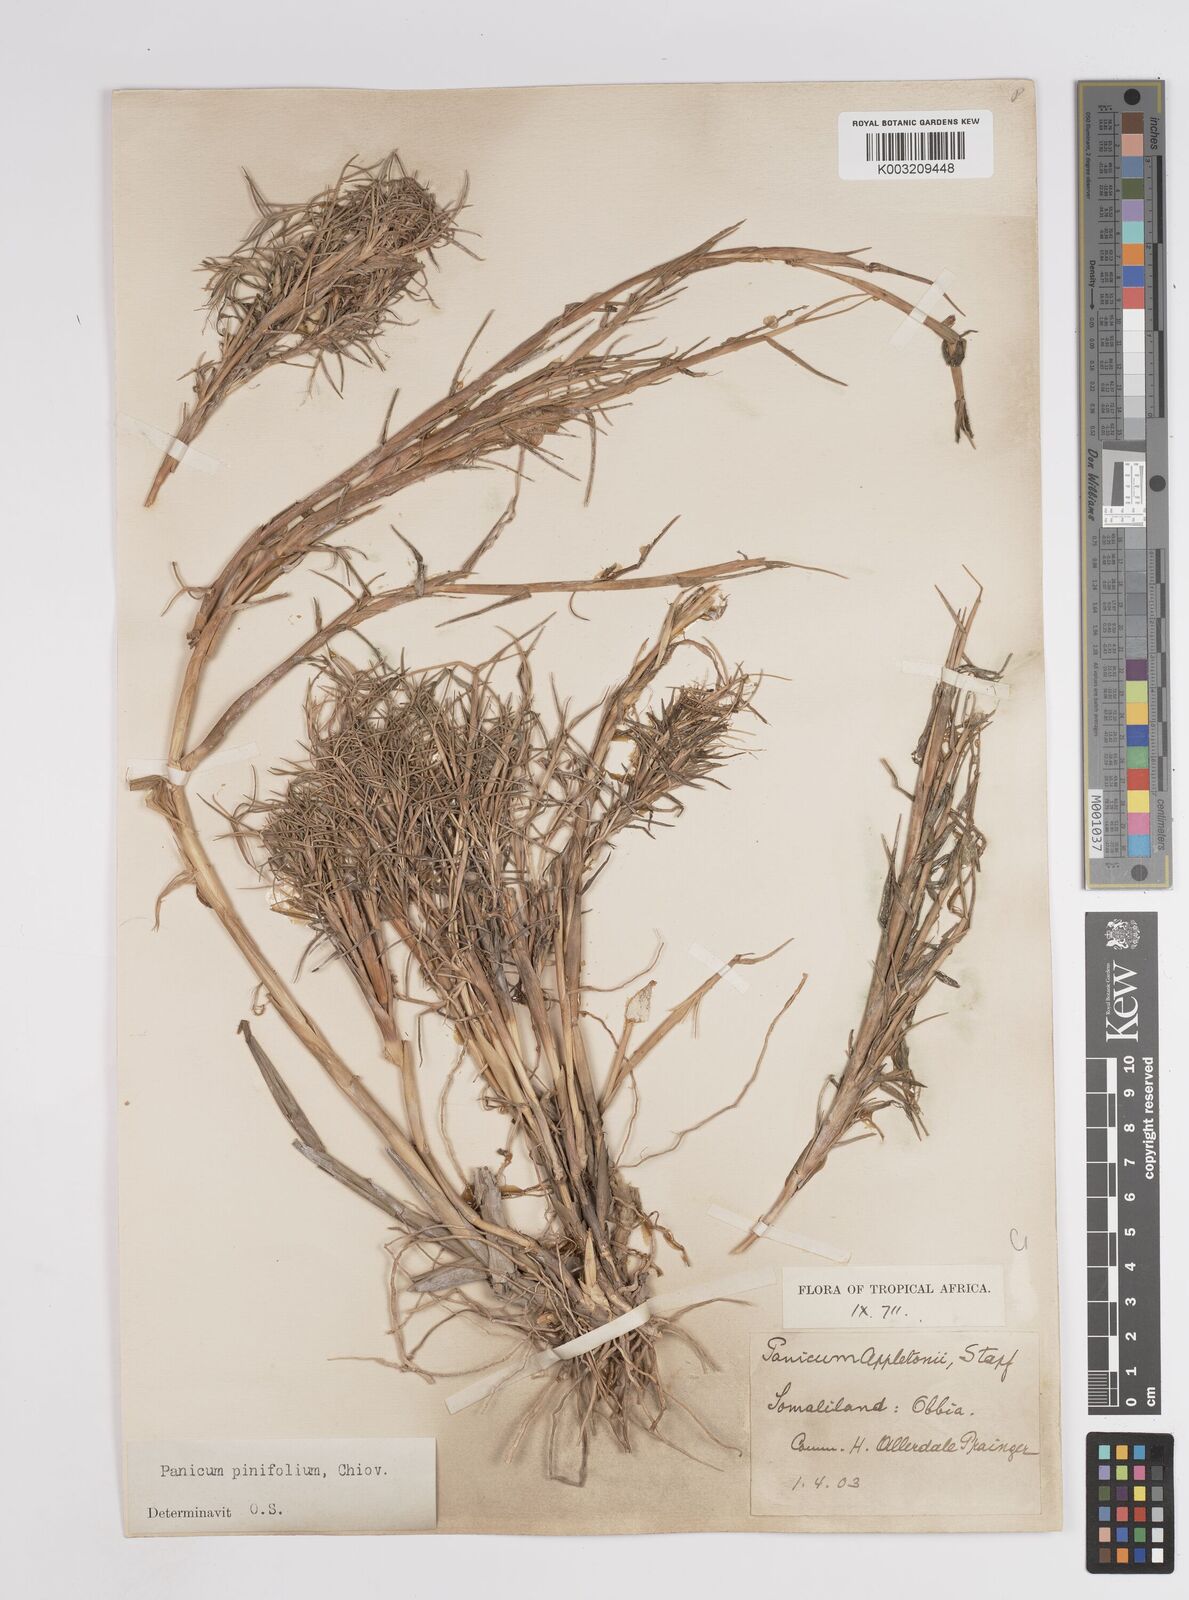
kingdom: Plantae
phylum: Tracheophyta
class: Liliopsida
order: Poales
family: Poaceae
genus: Panicum
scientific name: Panicum pinifolium
